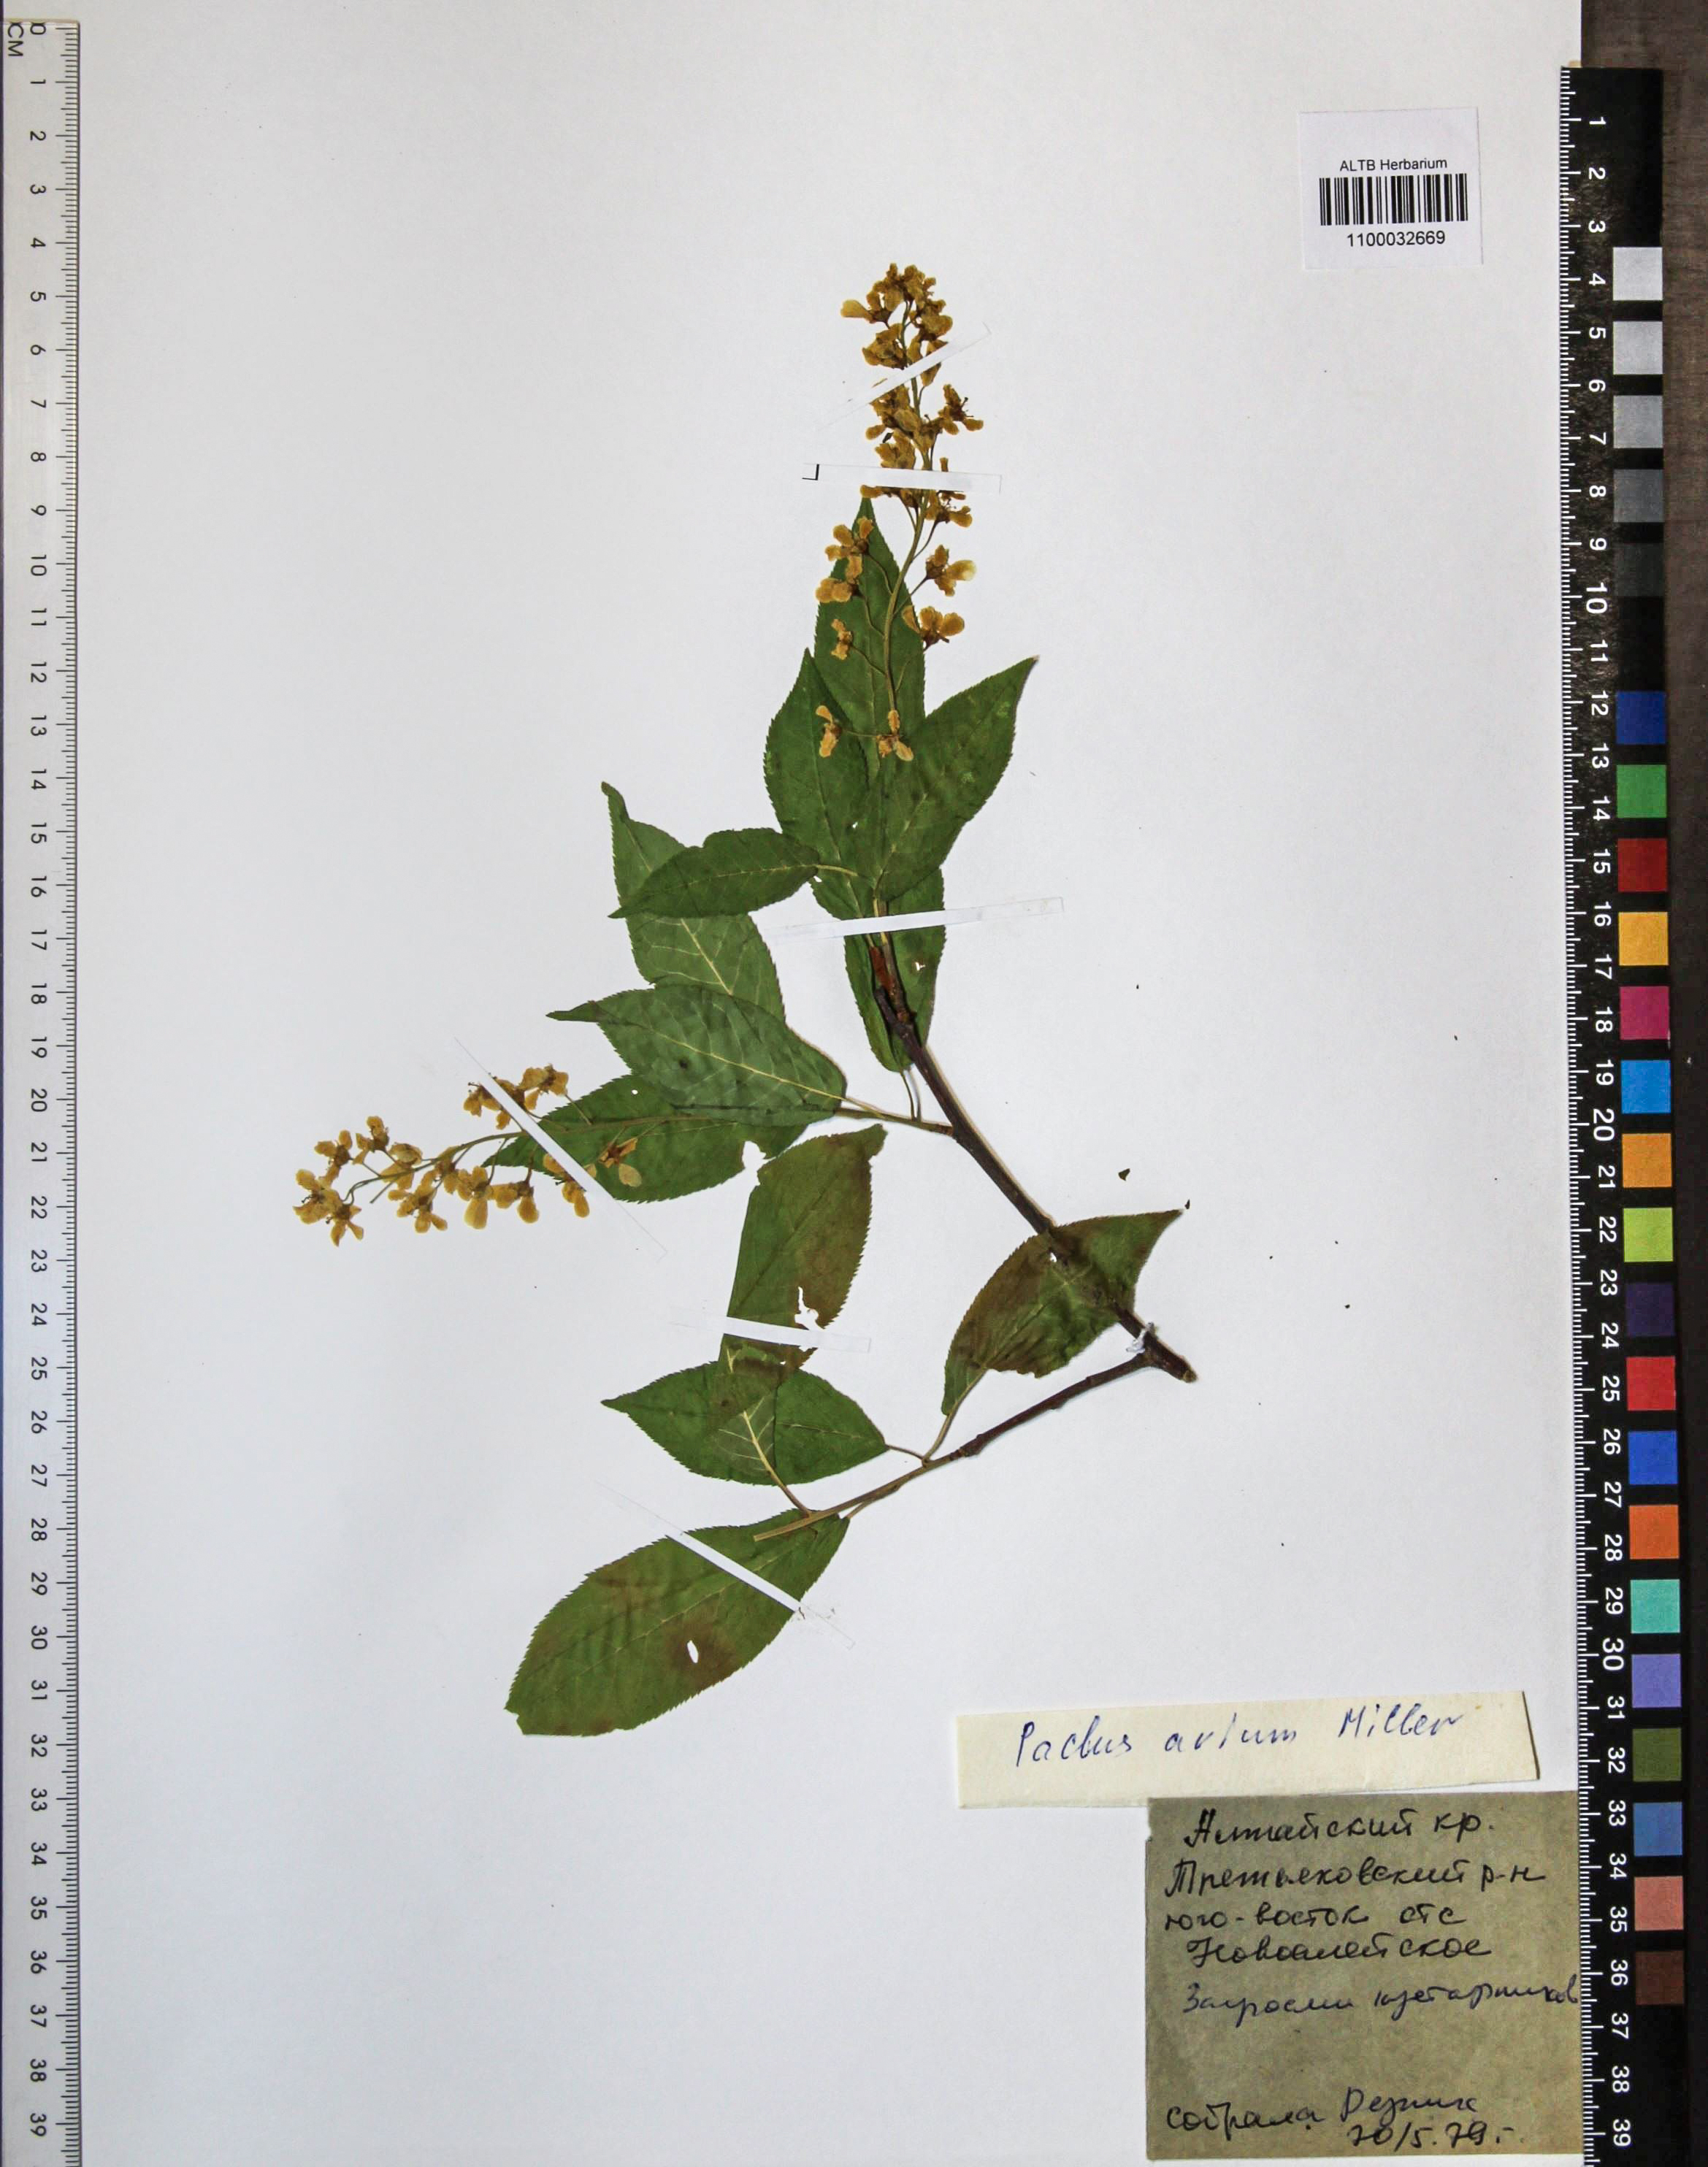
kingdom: Plantae
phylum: Tracheophyta
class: Magnoliopsida
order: Rosales
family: Rosaceae
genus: Prunus
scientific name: Prunus padus
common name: Bird cherry
